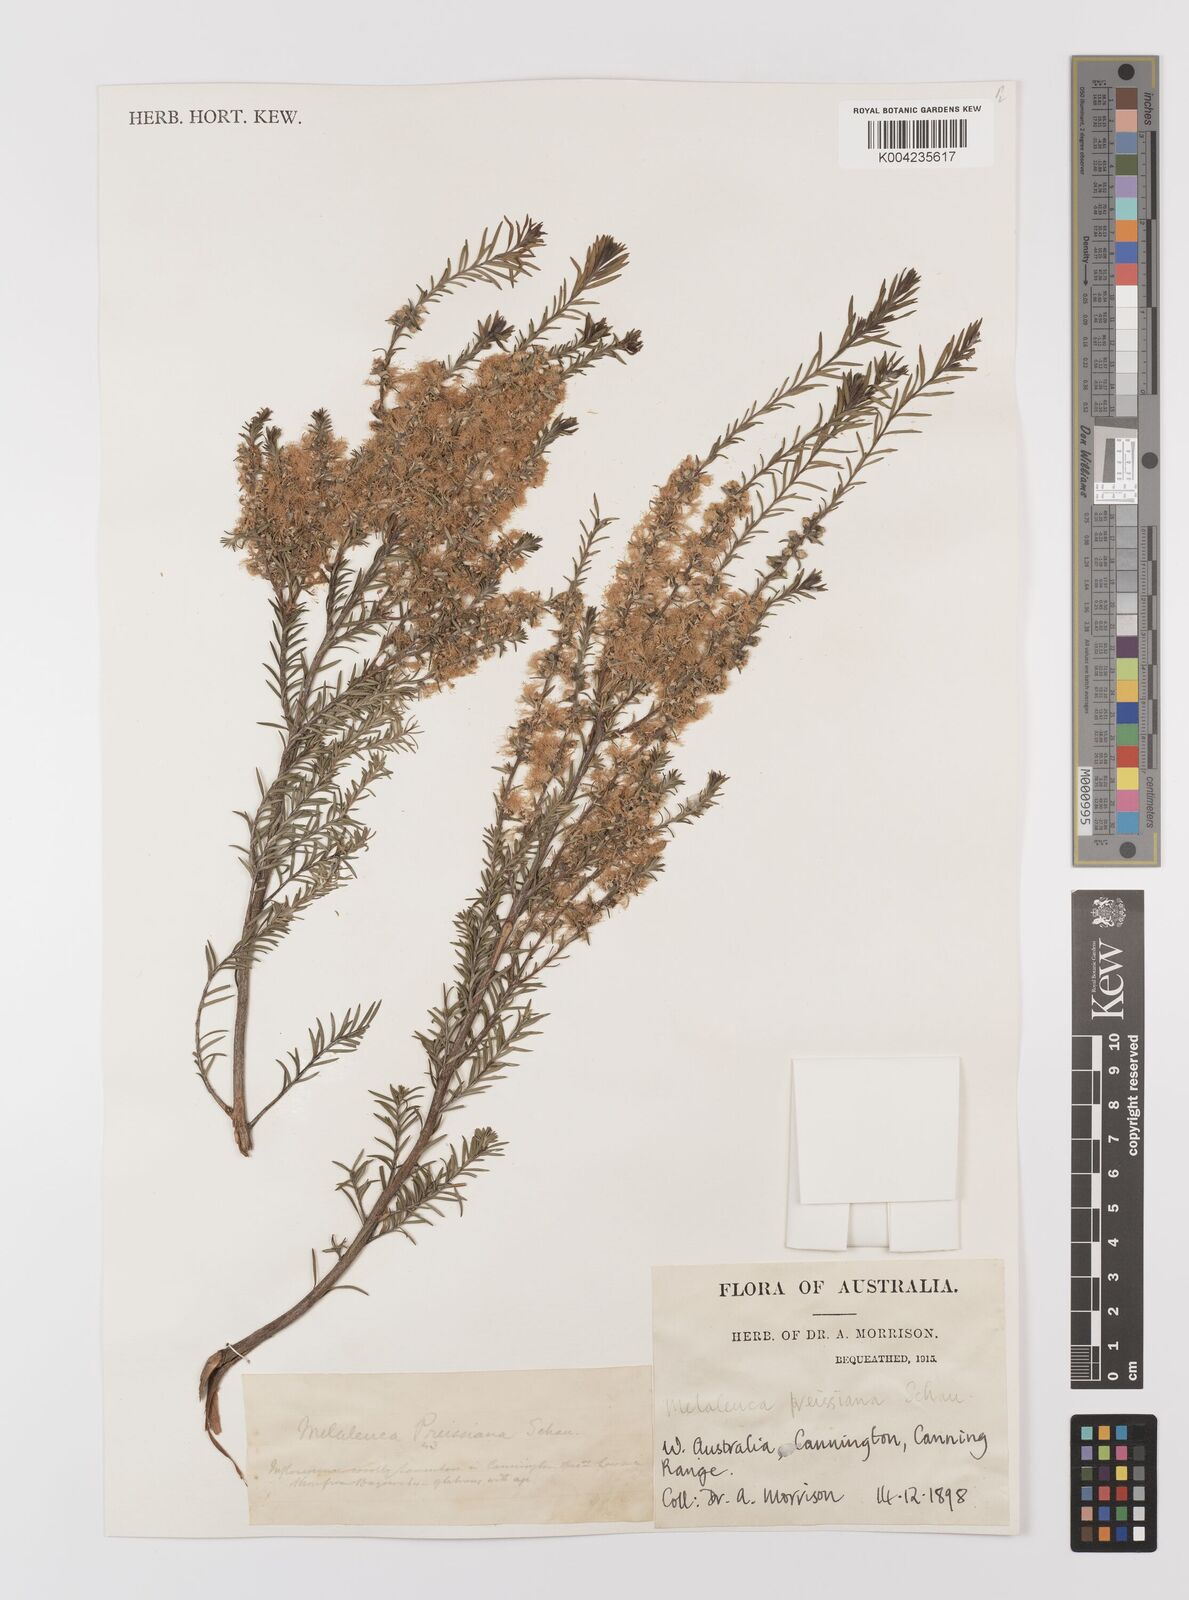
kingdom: Plantae
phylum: Tracheophyta
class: Magnoliopsida
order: Myrtales
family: Myrtaceae
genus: Melaleuca
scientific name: Melaleuca preissiana
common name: Preiss's paperbark
